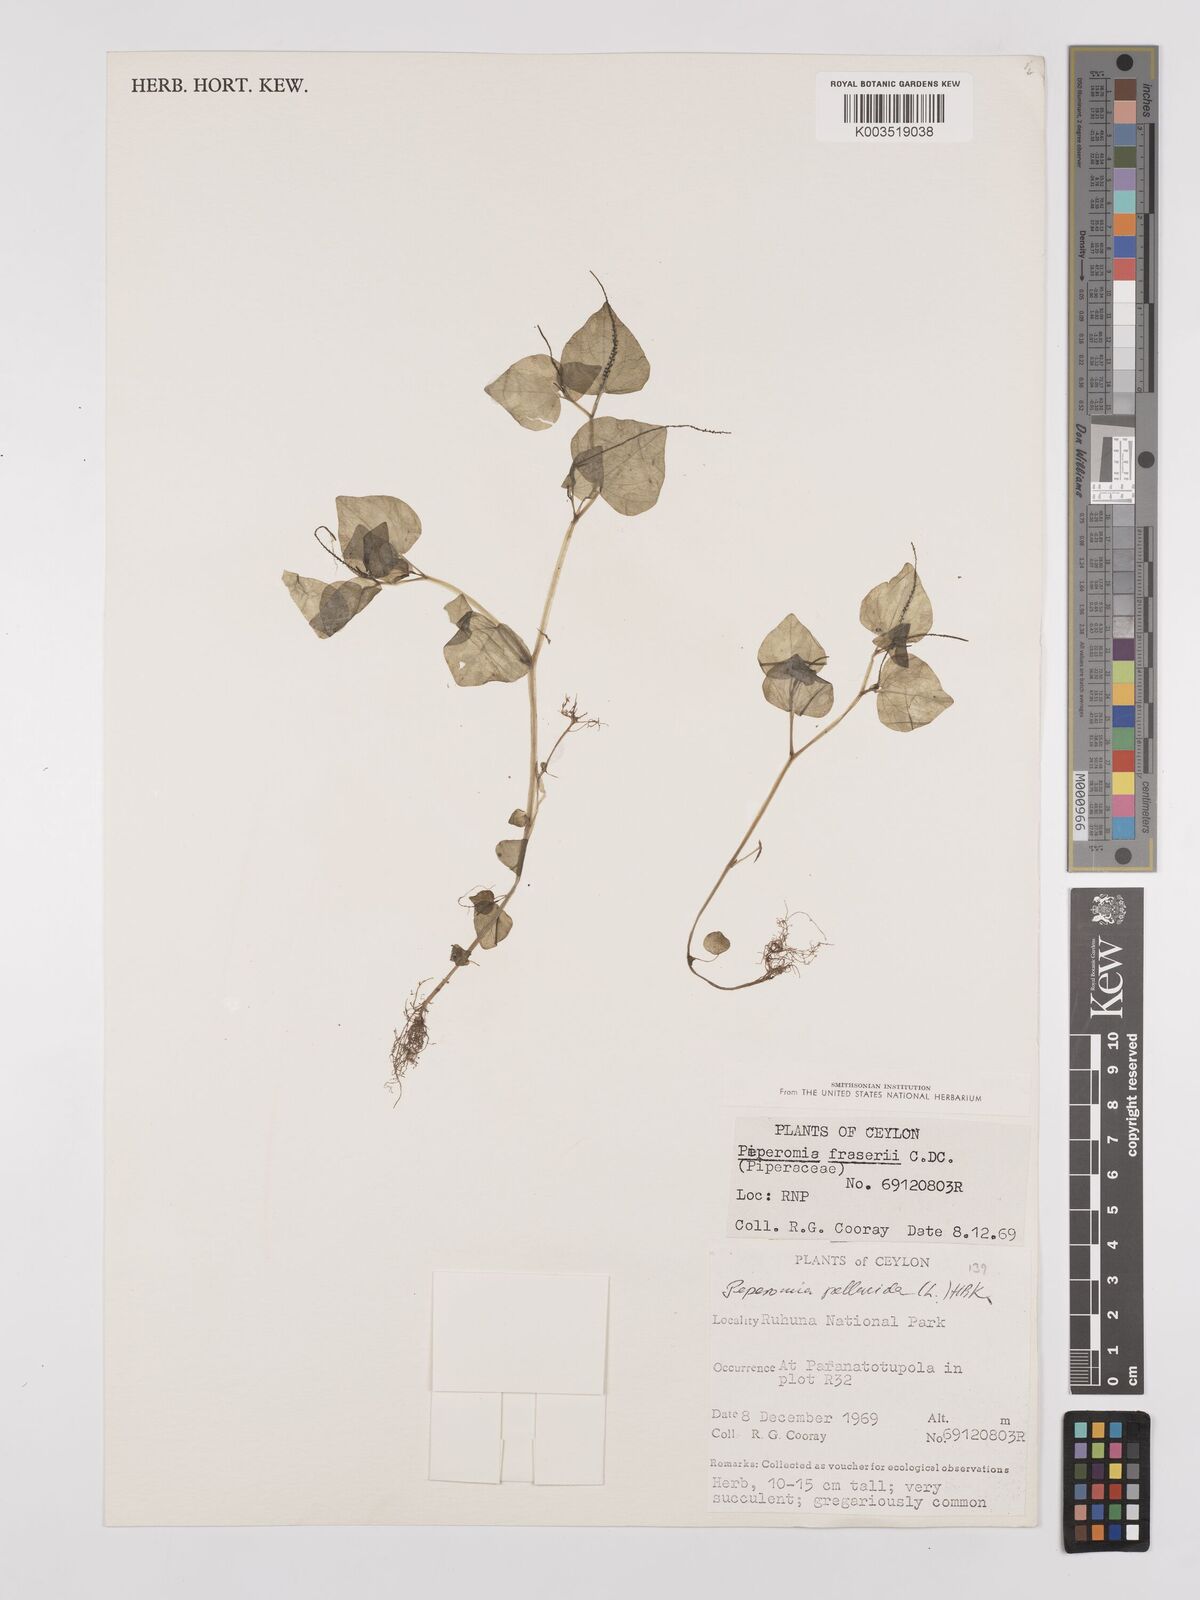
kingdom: Plantae
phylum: Tracheophyta
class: Magnoliopsida
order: Piperales
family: Piperaceae
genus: Peperomia
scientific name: Peperomia pellucida
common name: Man to man
